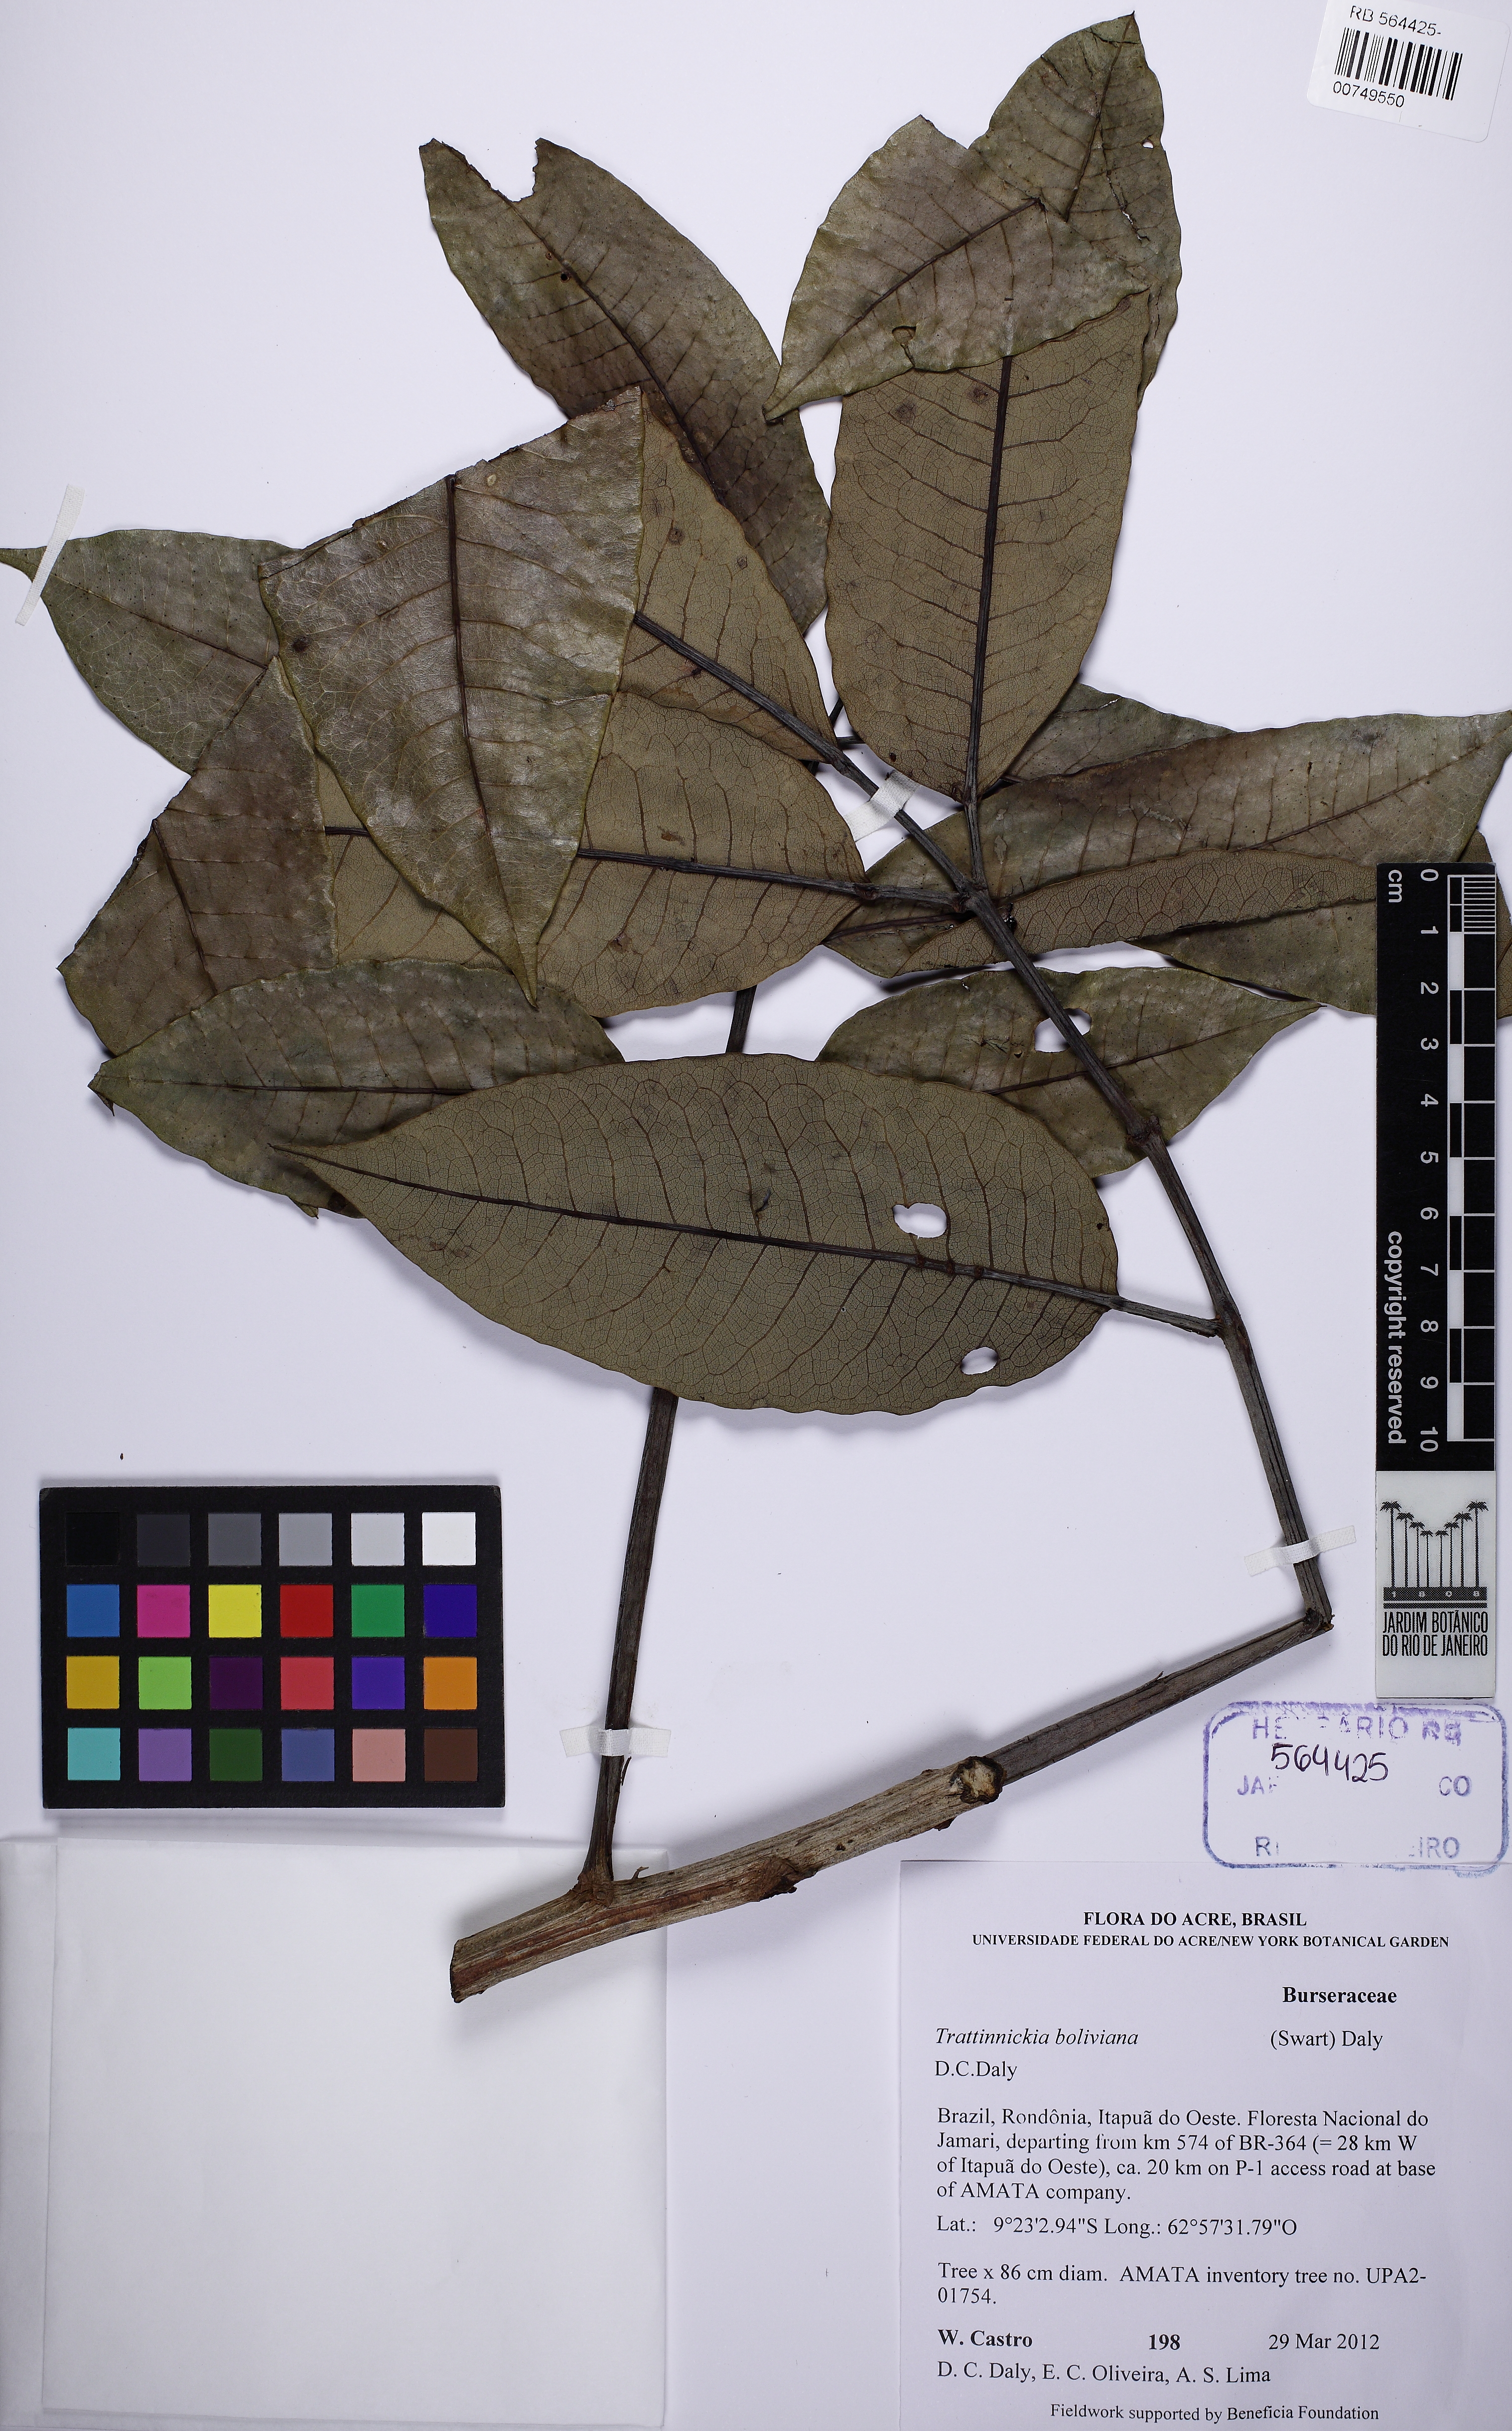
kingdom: Plantae
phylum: Tracheophyta
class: Magnoliopsida
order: Sapindales
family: Burseraceae
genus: Trattinnickia
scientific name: Trattinnickia burserifolia
